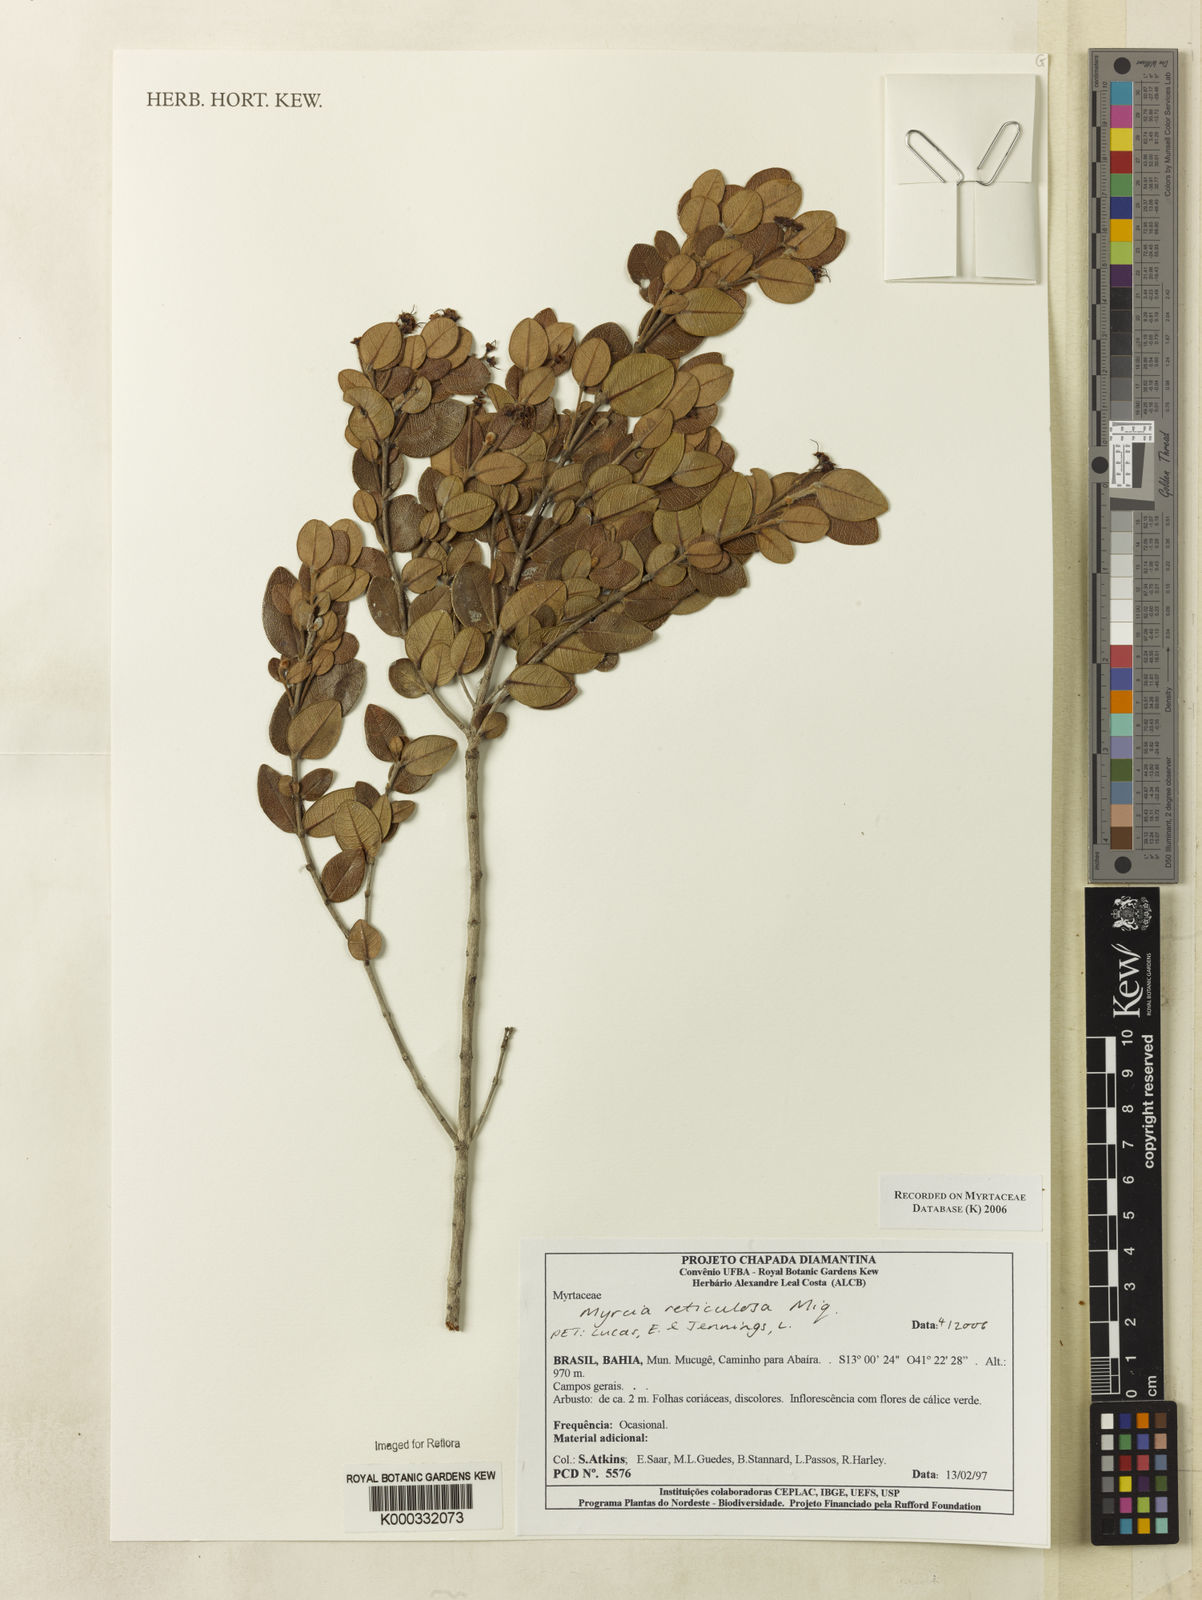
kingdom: Plantae
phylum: Tracheophyta
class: Magnoliopsida
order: Myrtales
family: Myrtaceae
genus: Myrcia
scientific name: Myrcia reticulosa
